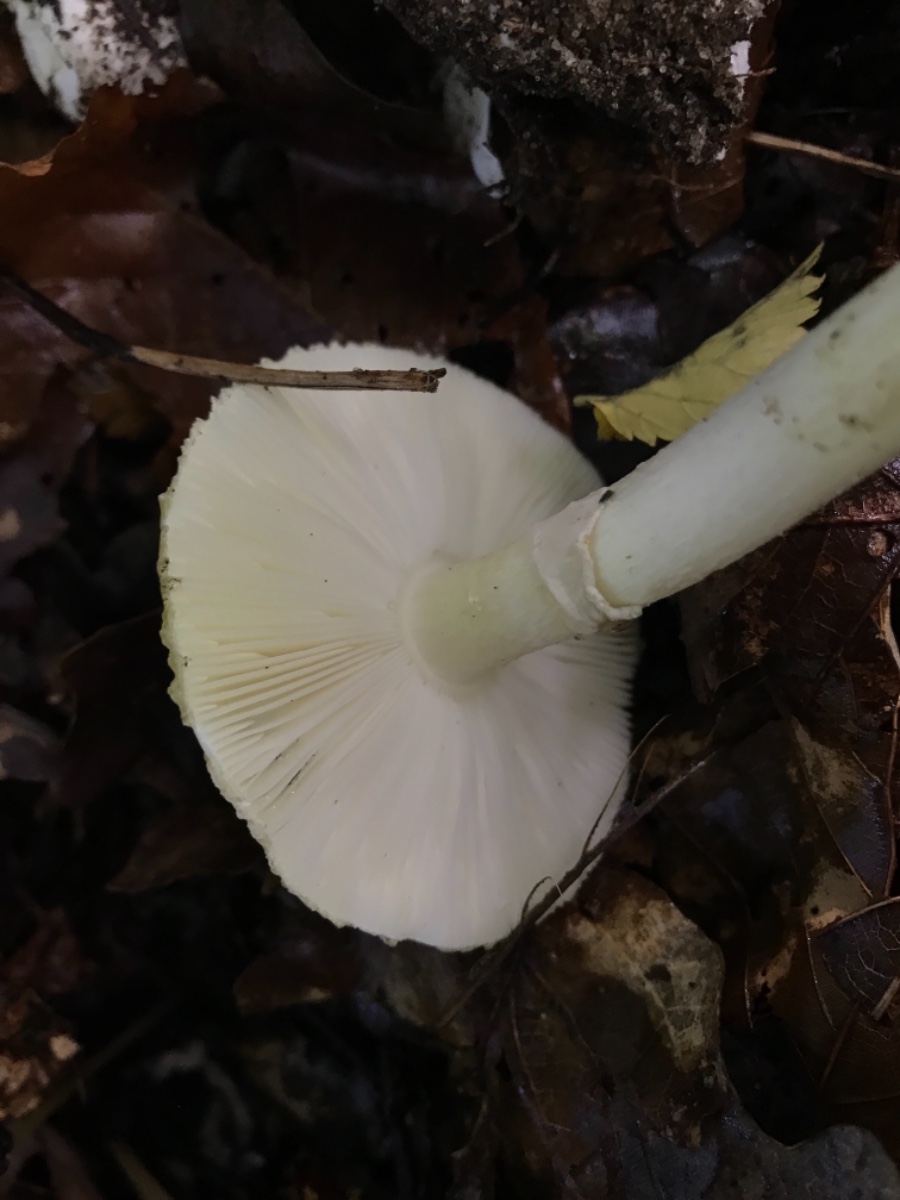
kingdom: Fungi
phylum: Basidiomycota
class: Agaricomycetes
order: Agaricales
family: Amanitaceae
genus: Amanita
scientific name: Amanita phalloides
